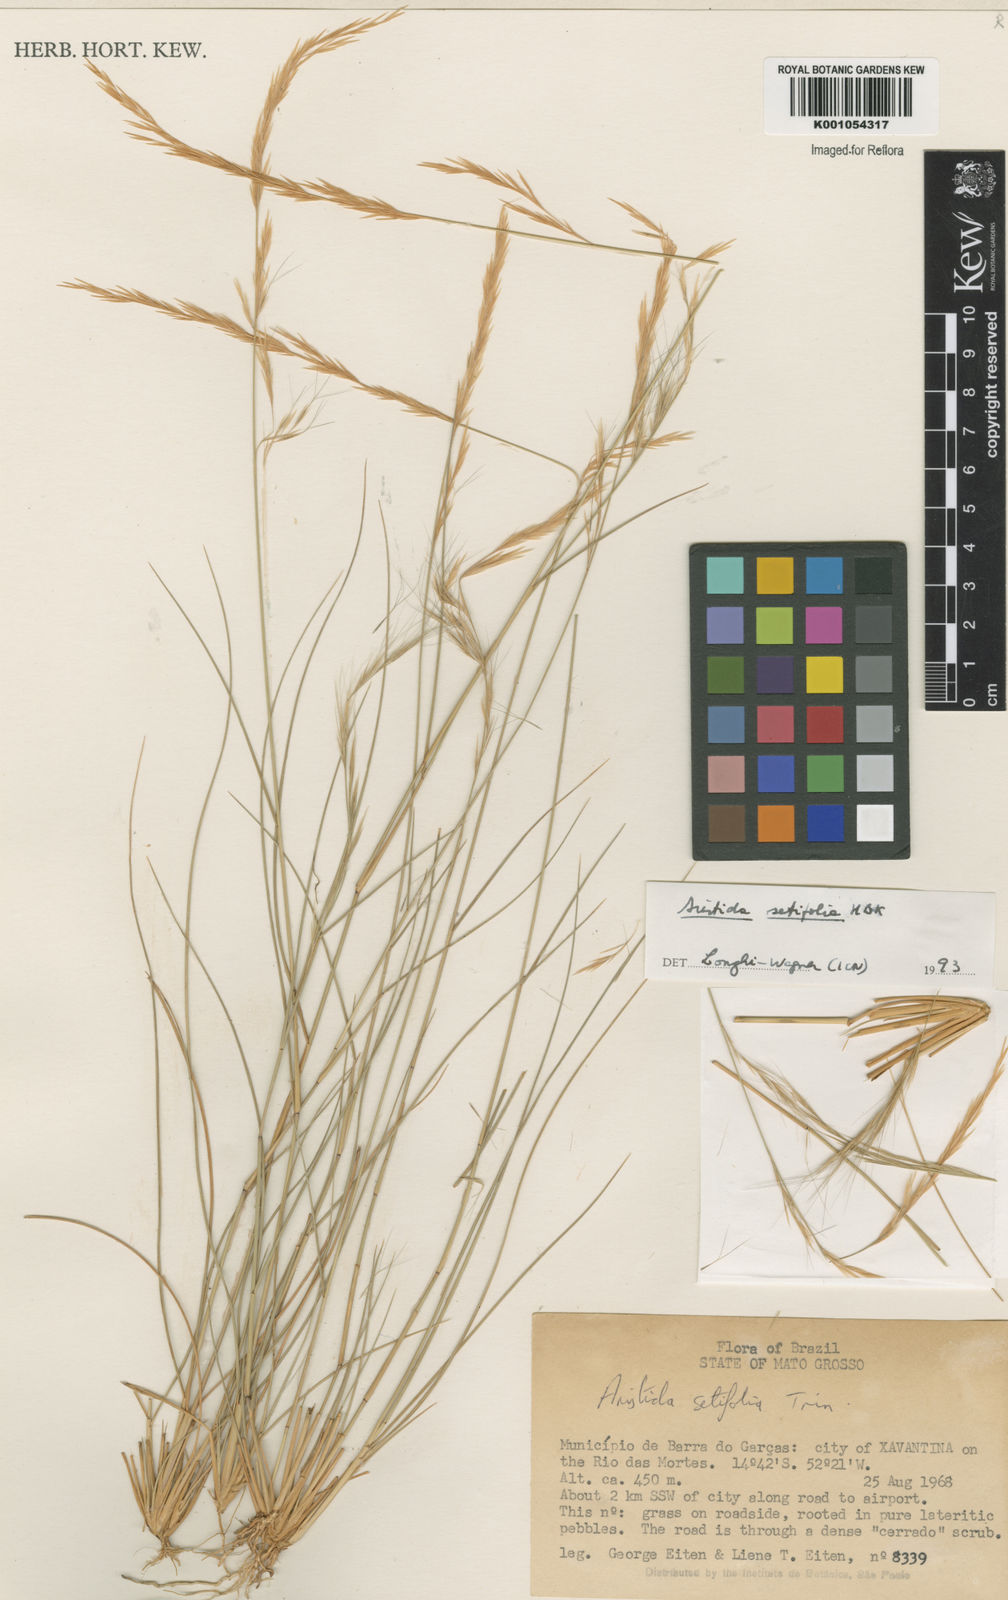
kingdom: Plantae
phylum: Tracheophyta
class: Liliopsida
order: Poales
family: Poaceae
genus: Aristida
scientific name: Aristida setifolia
